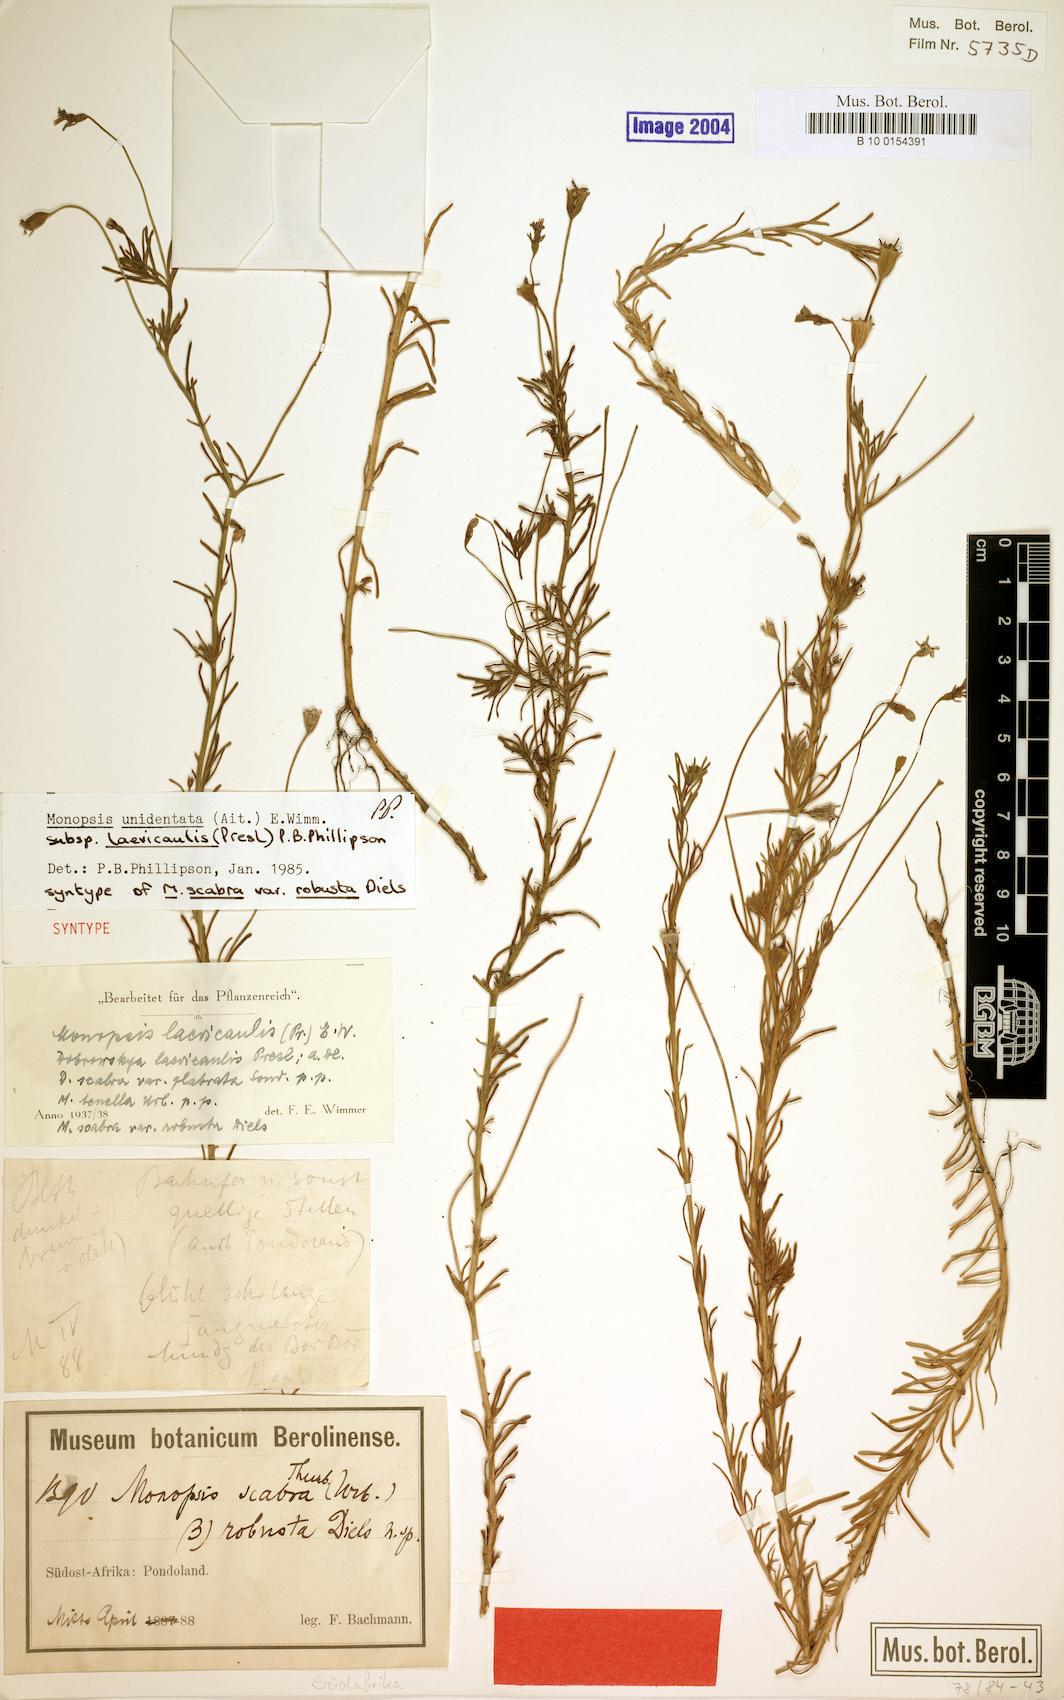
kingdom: Plantae
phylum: Tracheophyta
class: Magnoliopsida
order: Asterales
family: Campanulaceae
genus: Monopsis
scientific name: Monopsis unidentata
